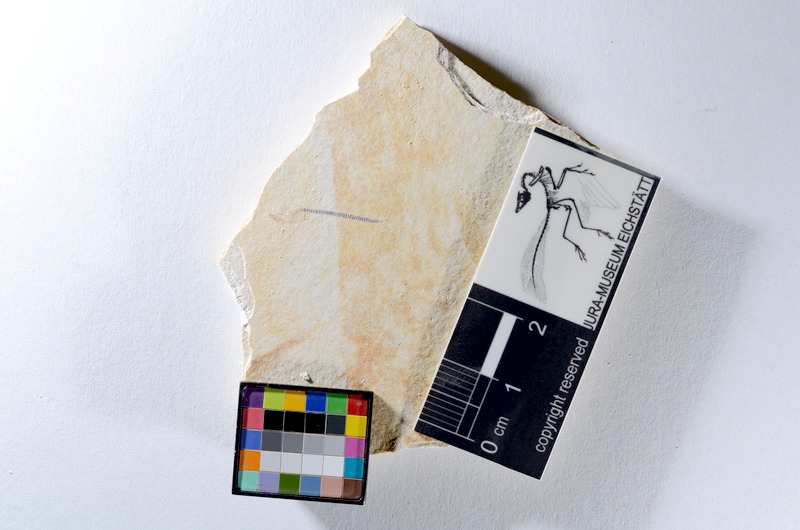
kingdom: Animalia
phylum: Chordata
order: Salmoniformes
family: Orthogonikleithridae
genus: Orthogonikleithrus
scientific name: Orthogonikleithrus hoelli
